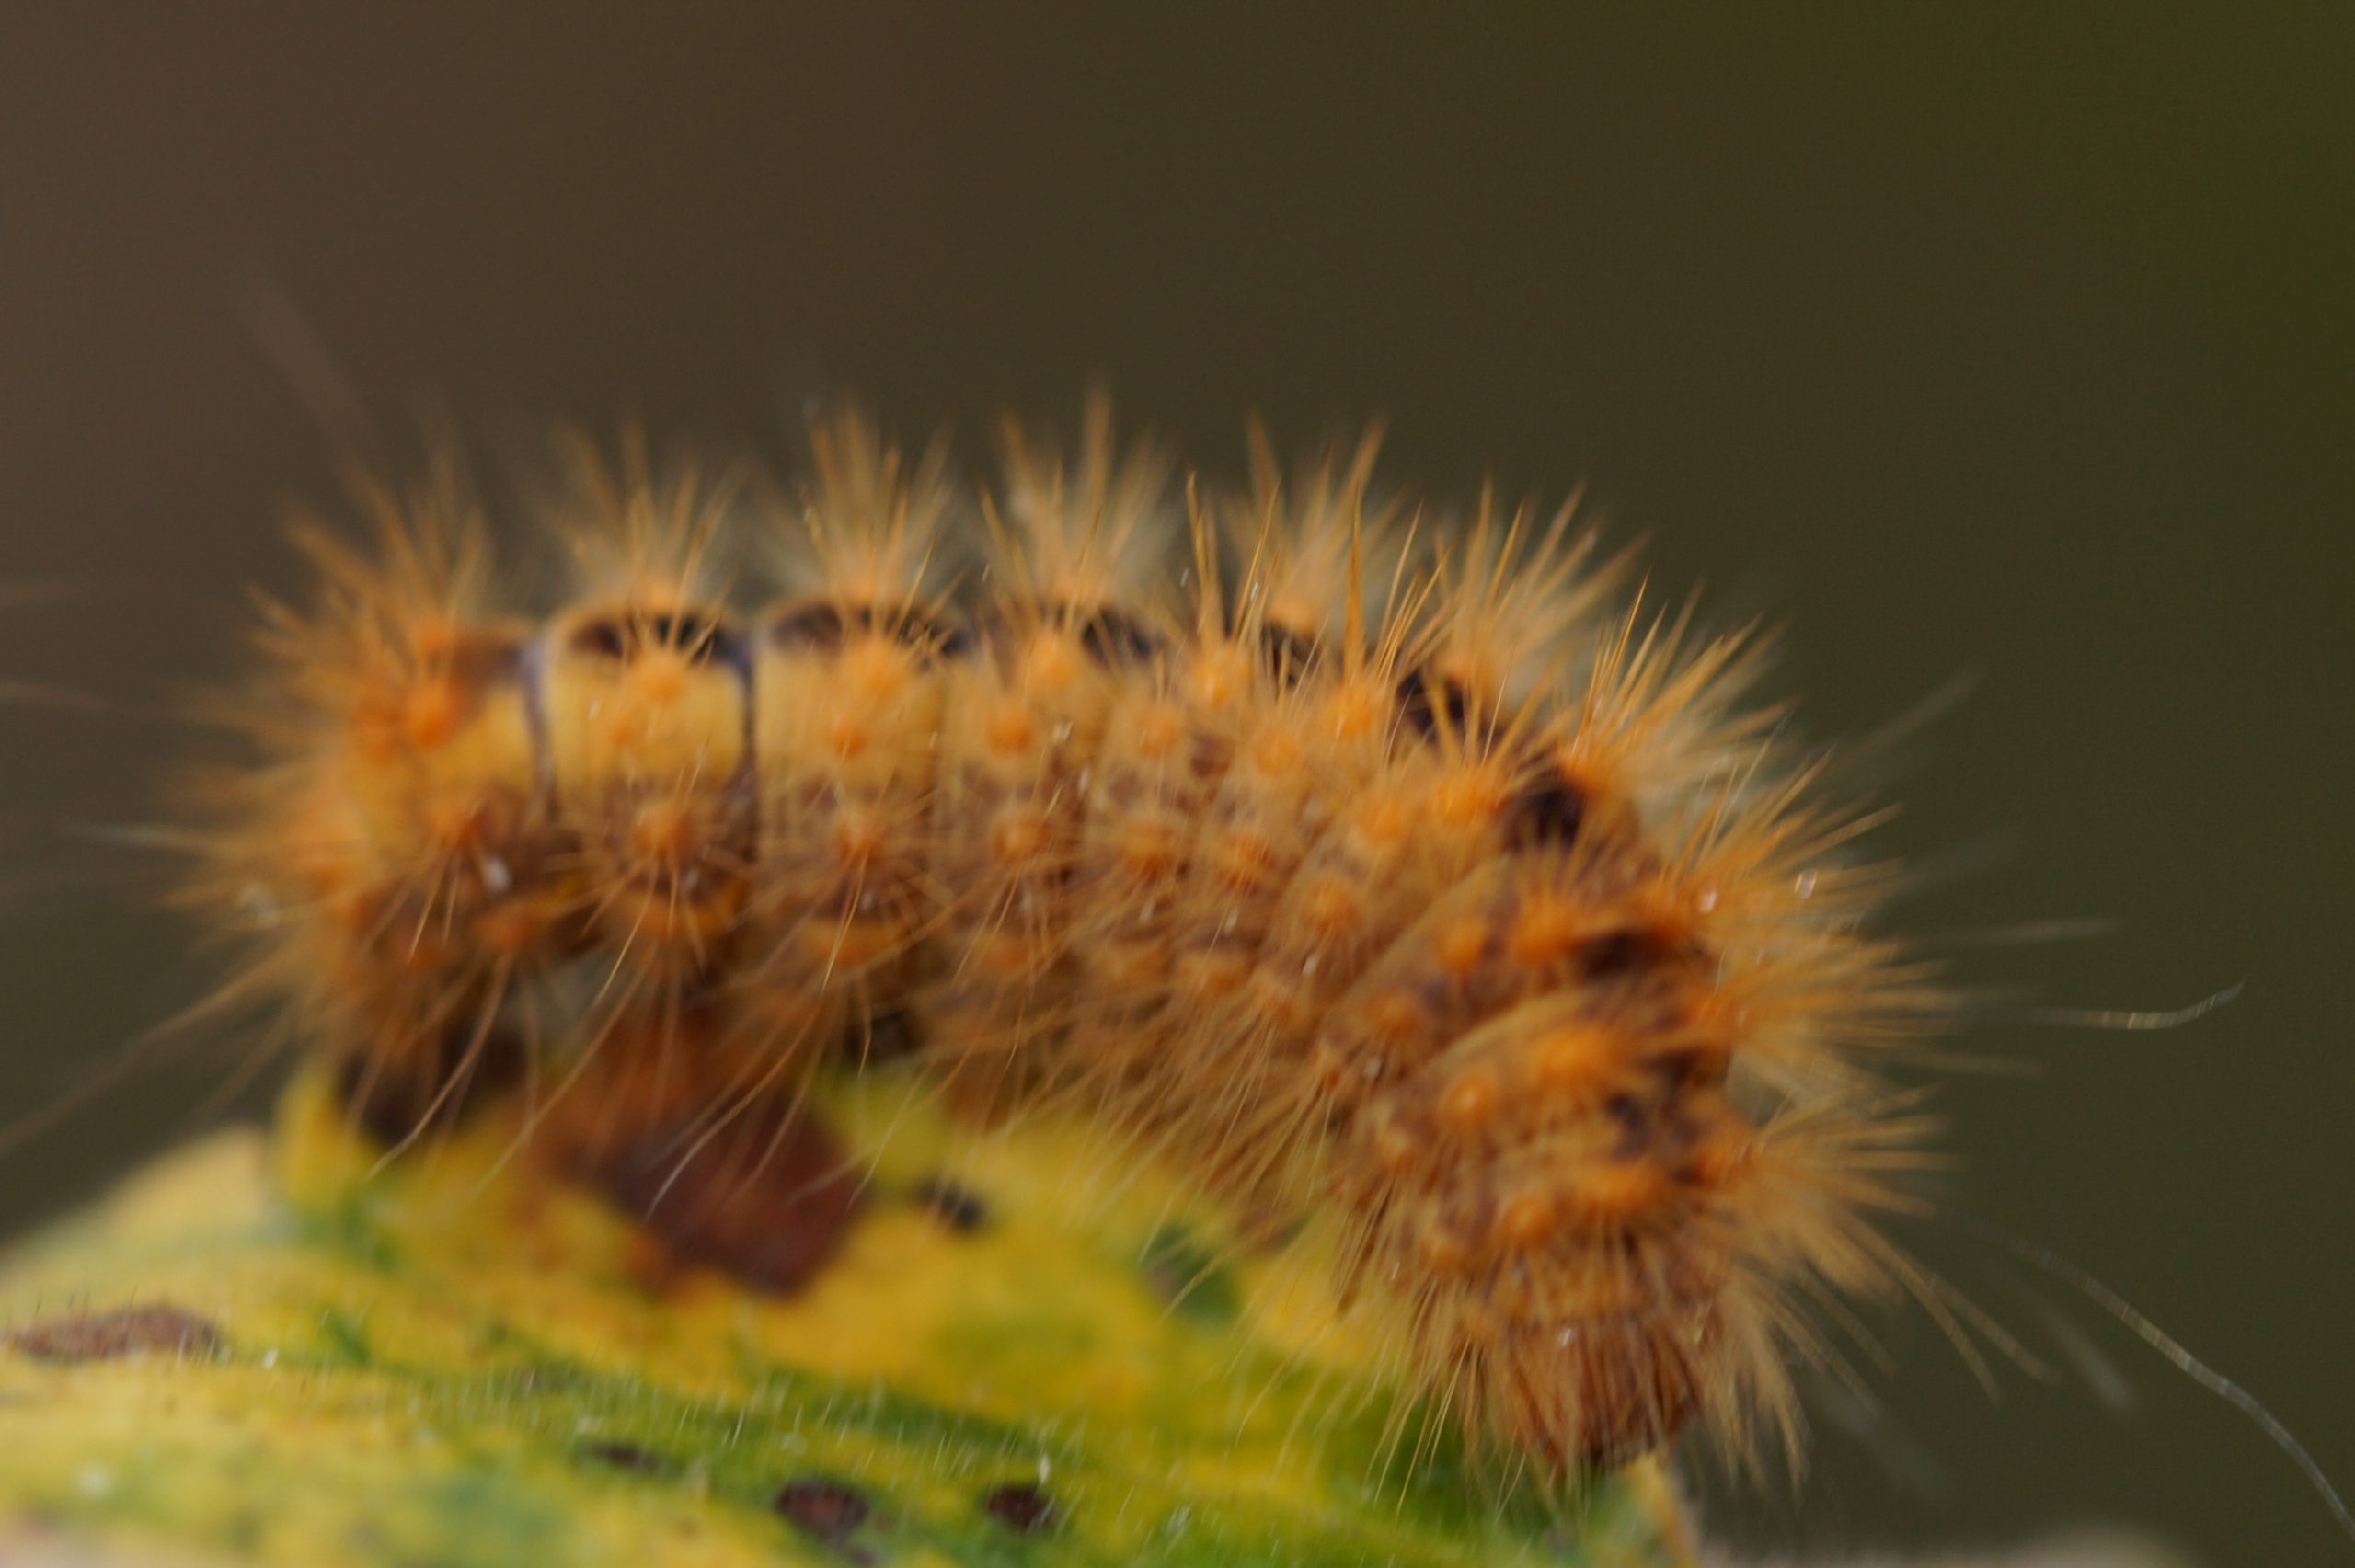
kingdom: Animalia
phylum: Arthropoda
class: Insecta
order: Lepidoptera
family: Noctuidae
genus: Acronicta
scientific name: Acronicta auricoma
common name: Guldlok-pelsugle
